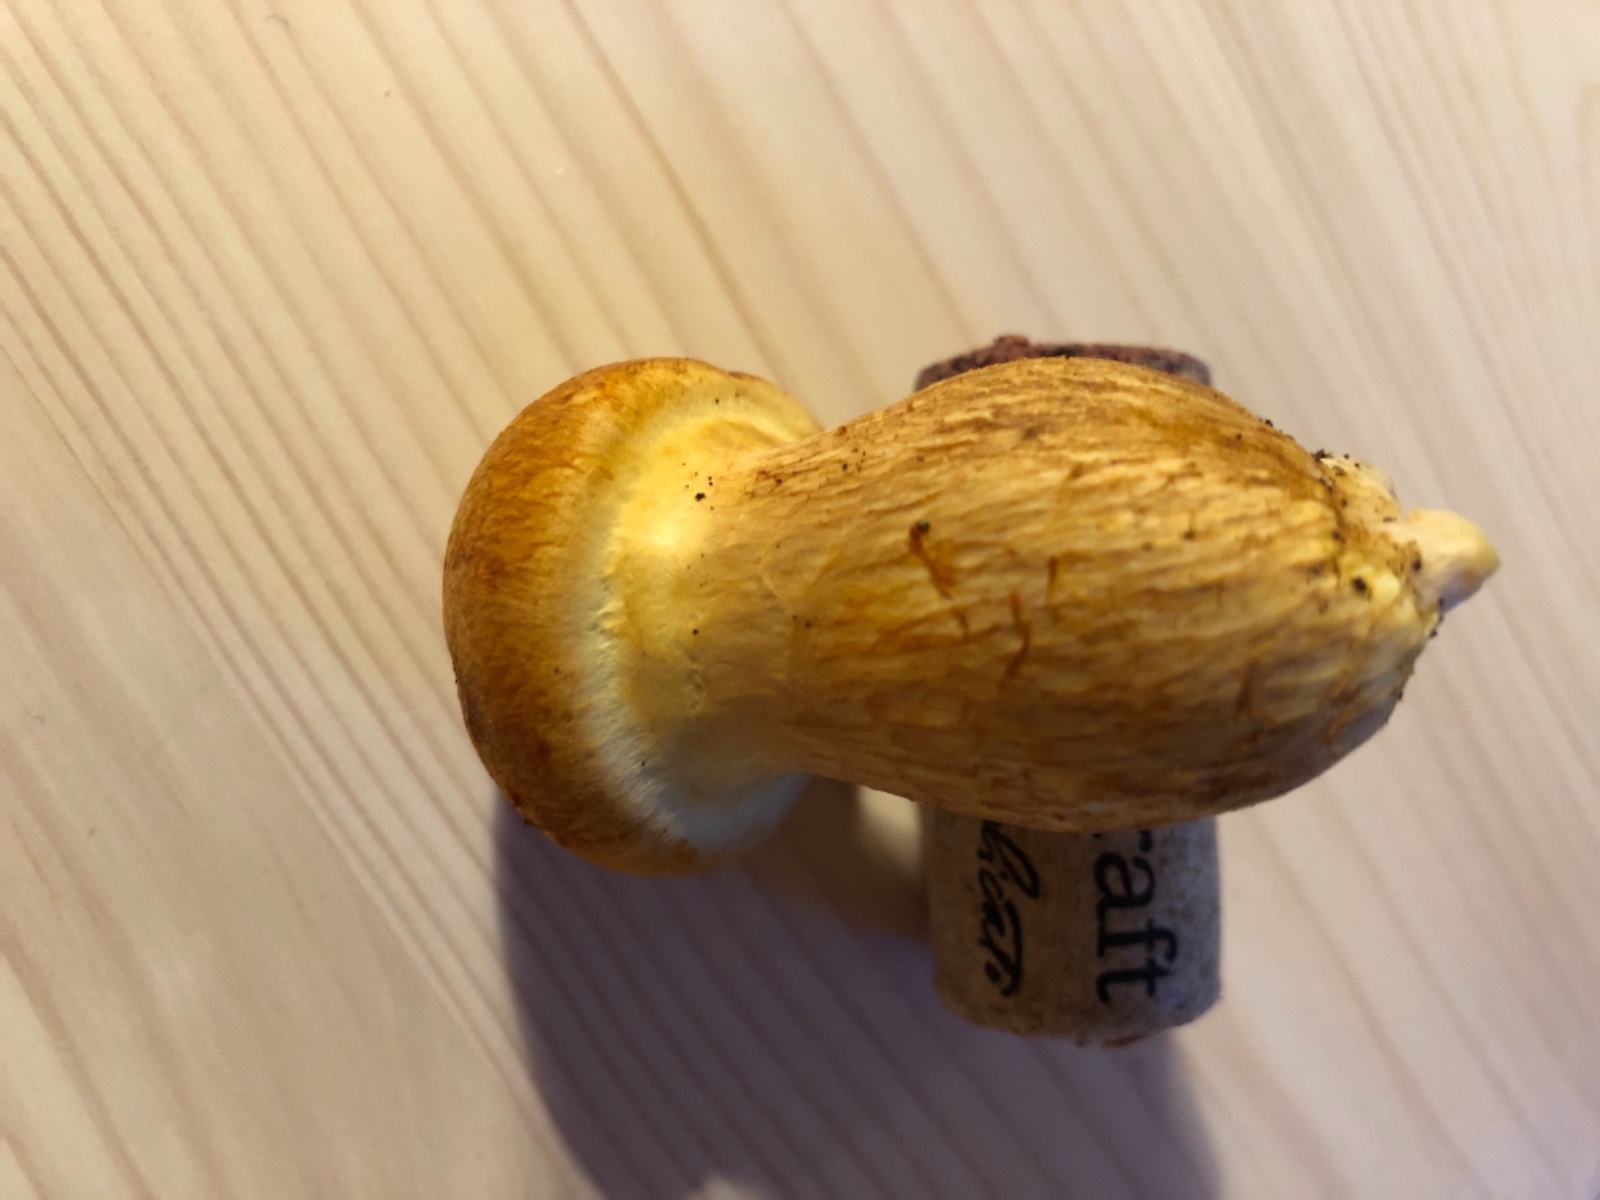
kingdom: Fungi
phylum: Basidiomycota
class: Agaricomycetes
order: Agaricales
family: Hymenogastraceae
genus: Gymnopilus
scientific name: Gymnopilus spectabilis
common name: fibret flammehat
